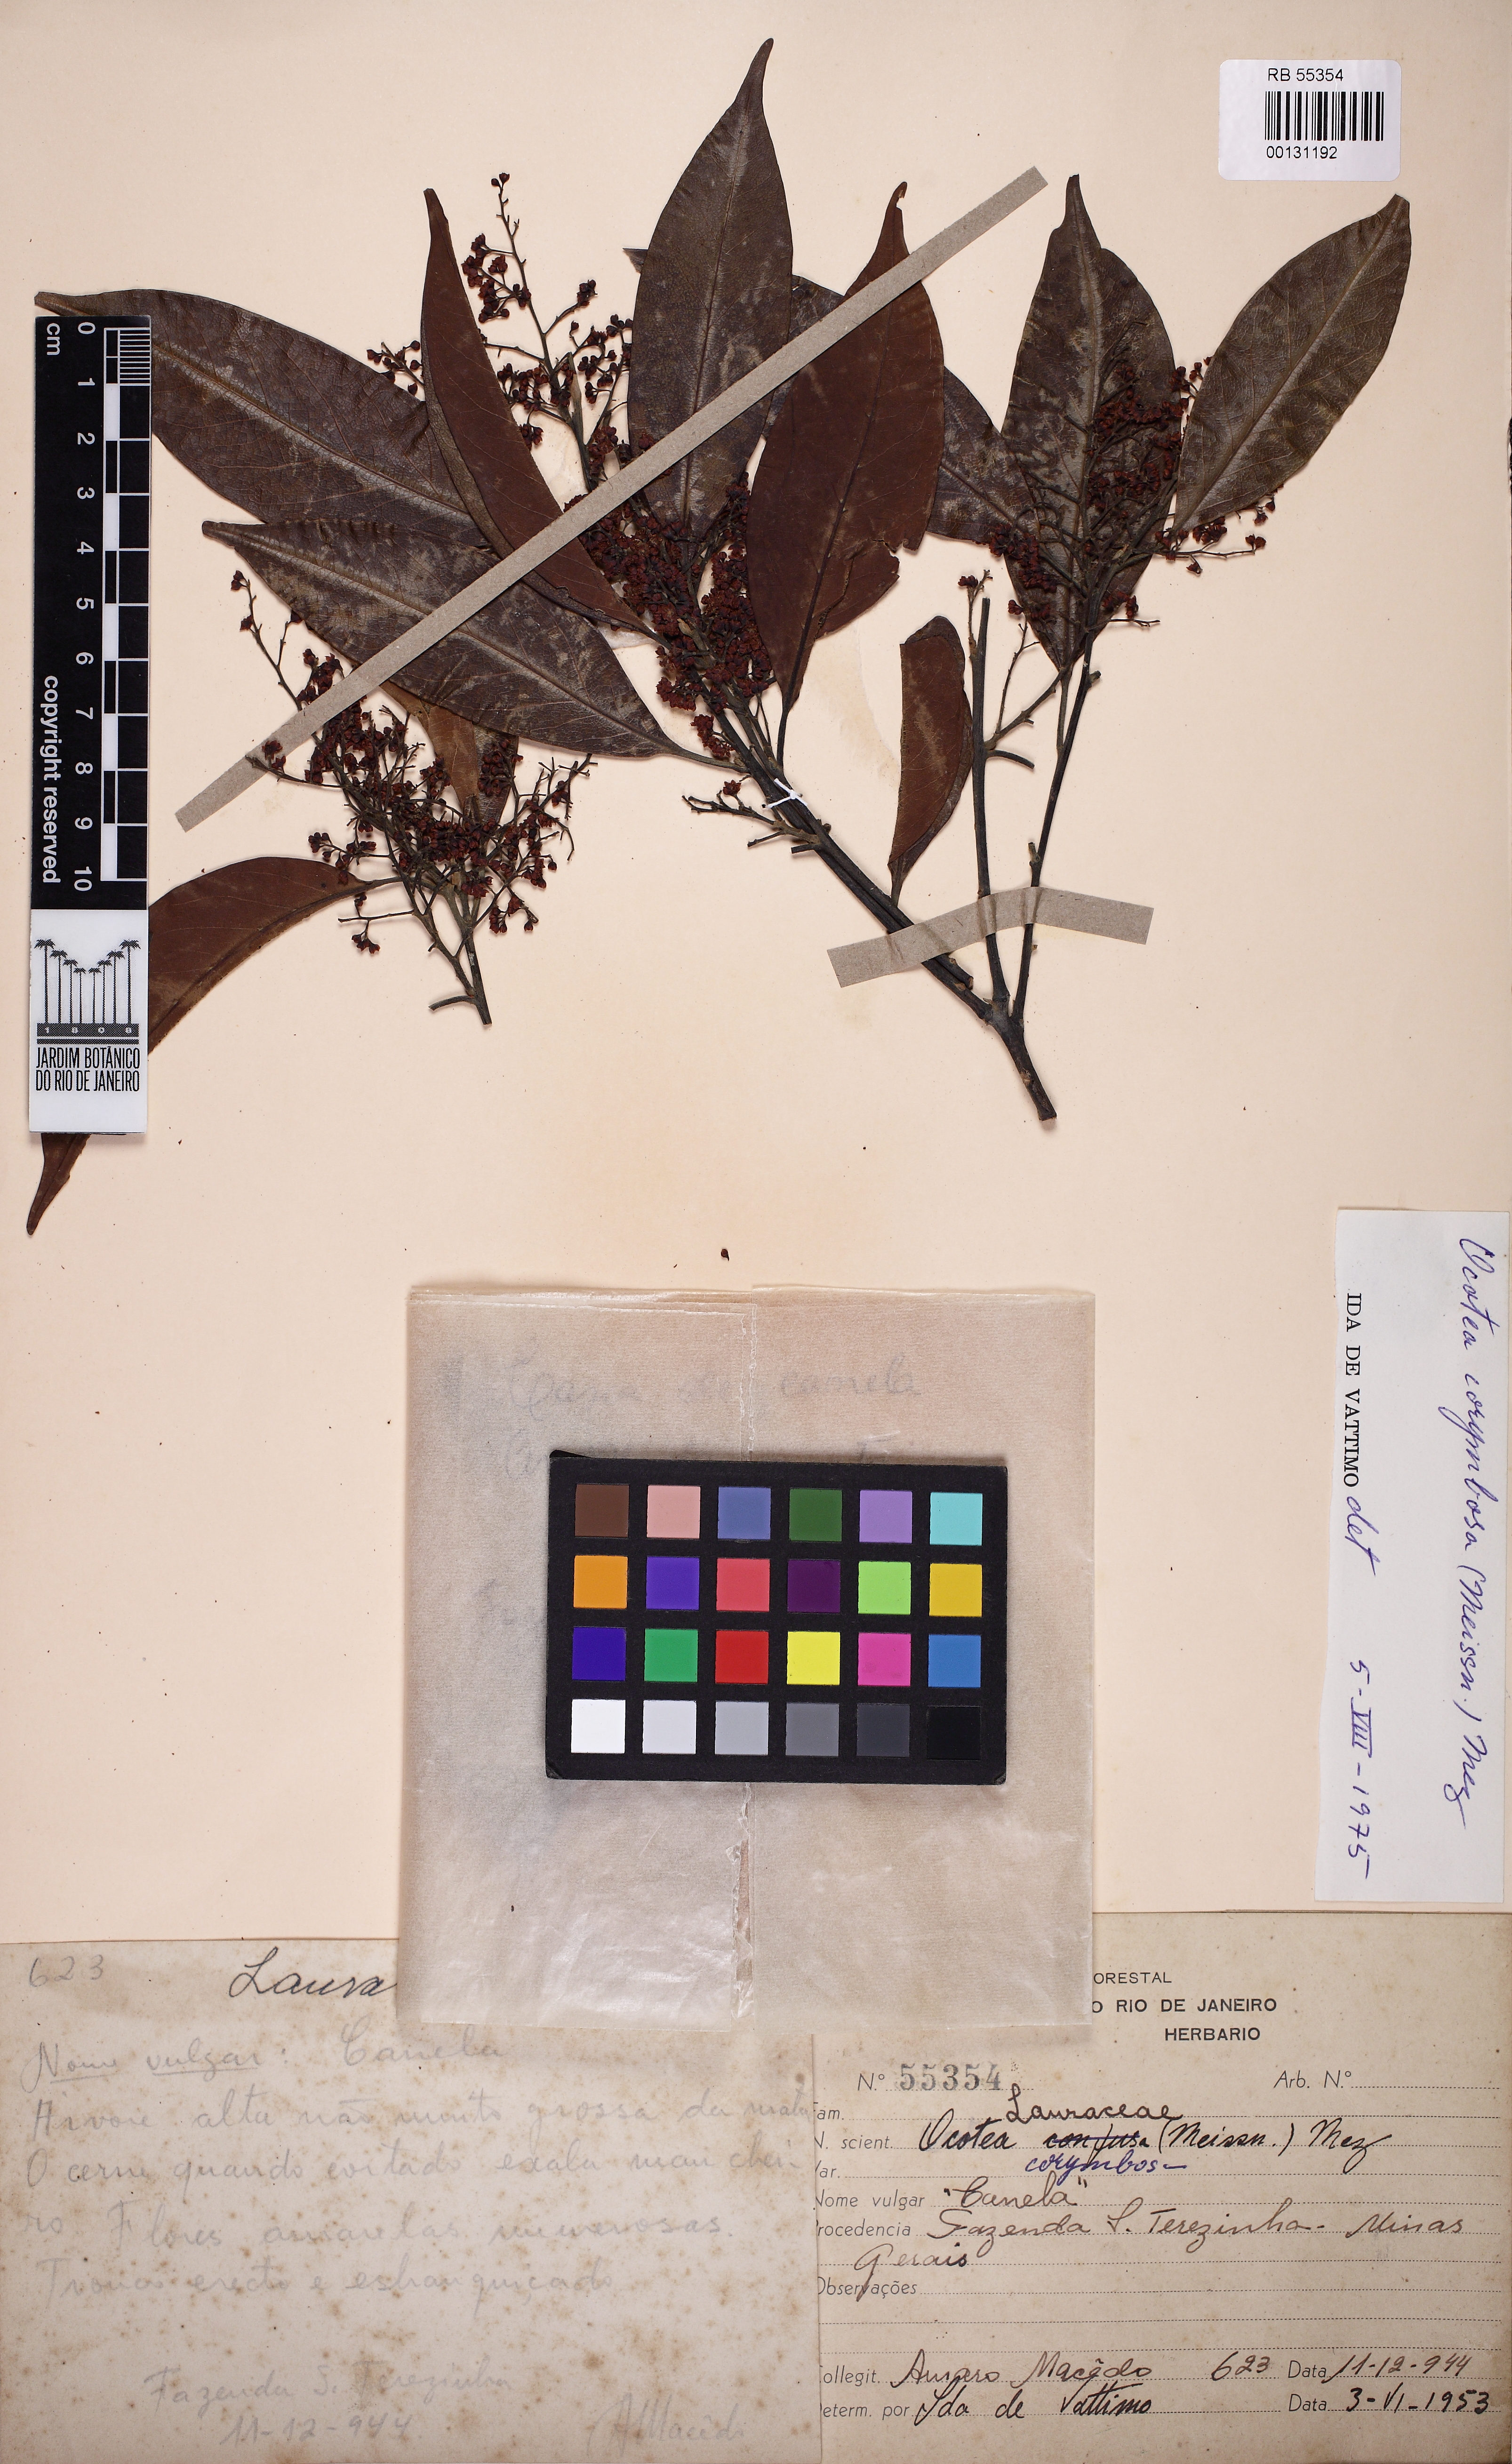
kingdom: Plantae
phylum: Tracheophyta
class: Magnoliopsida
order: Laurales
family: Lauraceae
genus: Mespilodaphne
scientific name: Mespilodaphne corymbosa
